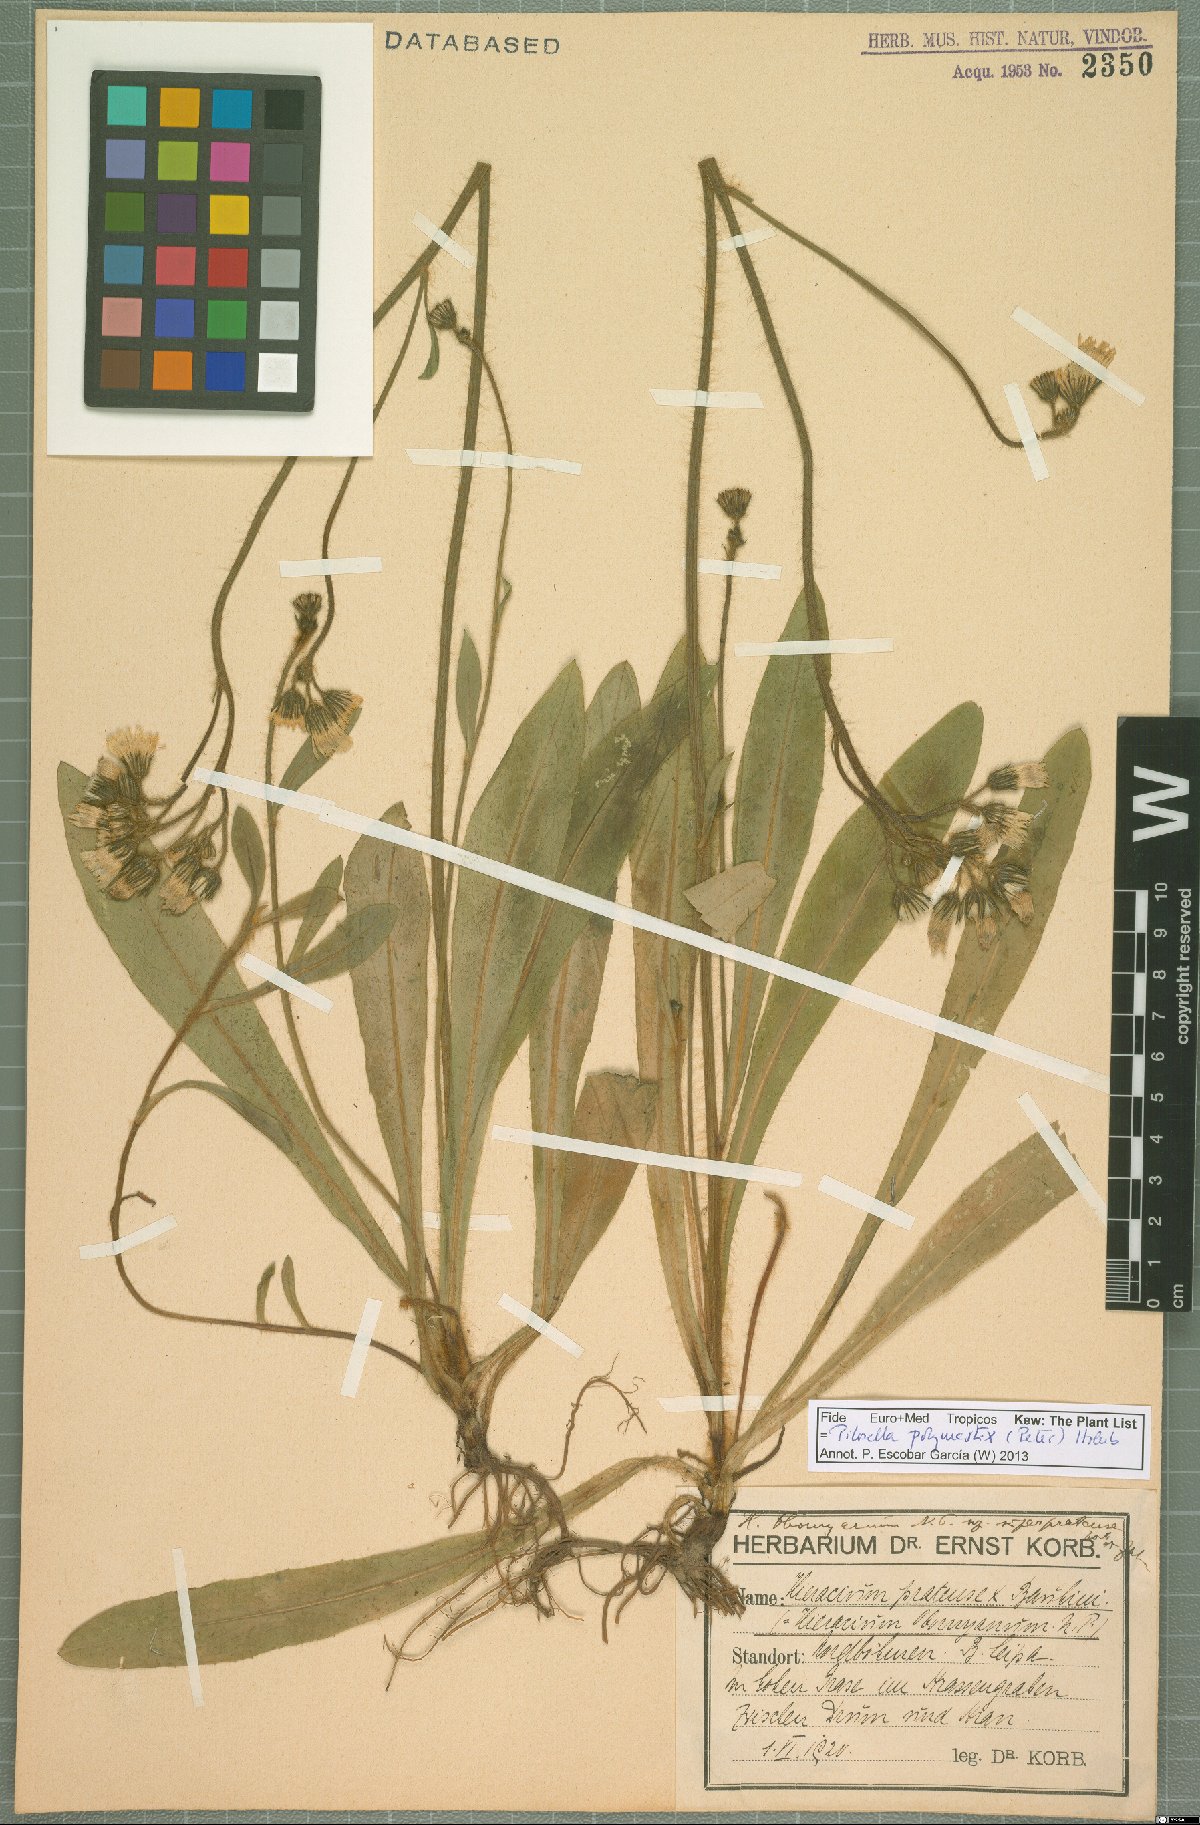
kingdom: Plantae
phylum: Tracheophyta
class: Magnoliopsida
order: Asterales
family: Asteraceae
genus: Pilosella
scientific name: Pilosella polymastix
